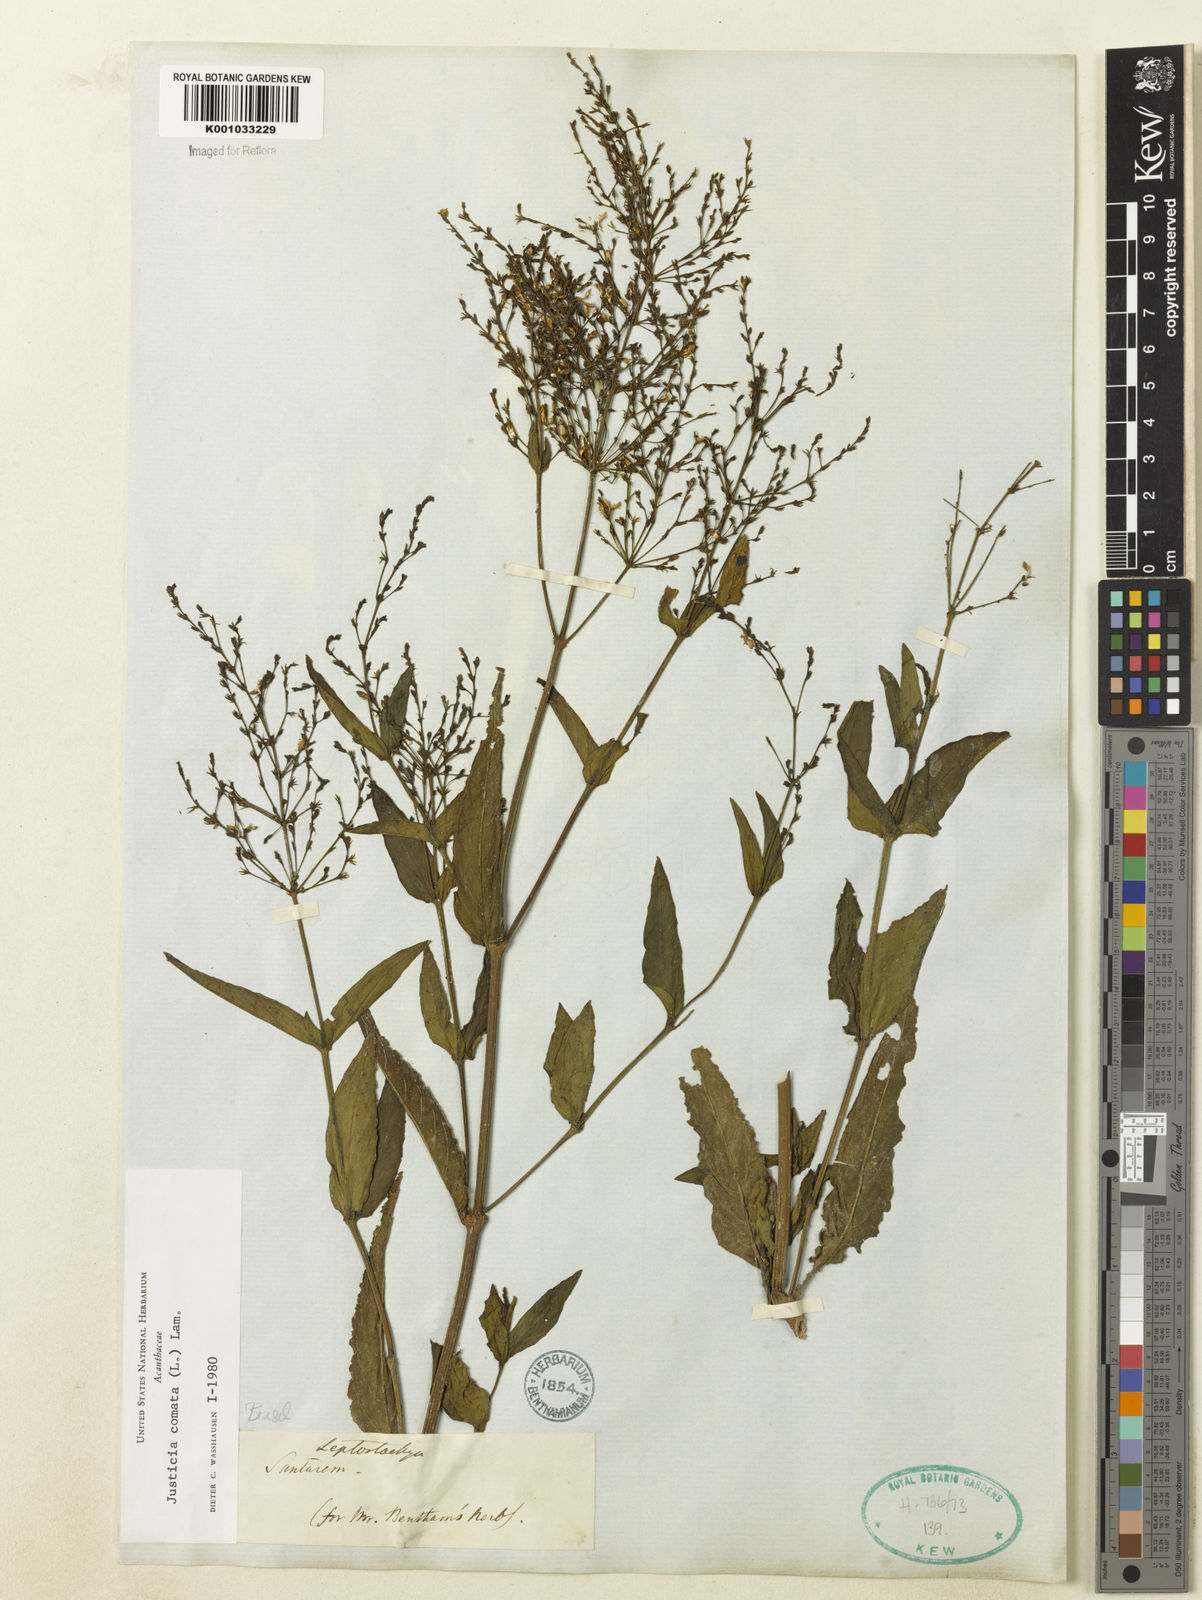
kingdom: Plantae
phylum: Tracheophyta
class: Magnoliopsida
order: Lamiales
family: Acanthaceae
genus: Dianthera
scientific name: Dianthera comata
